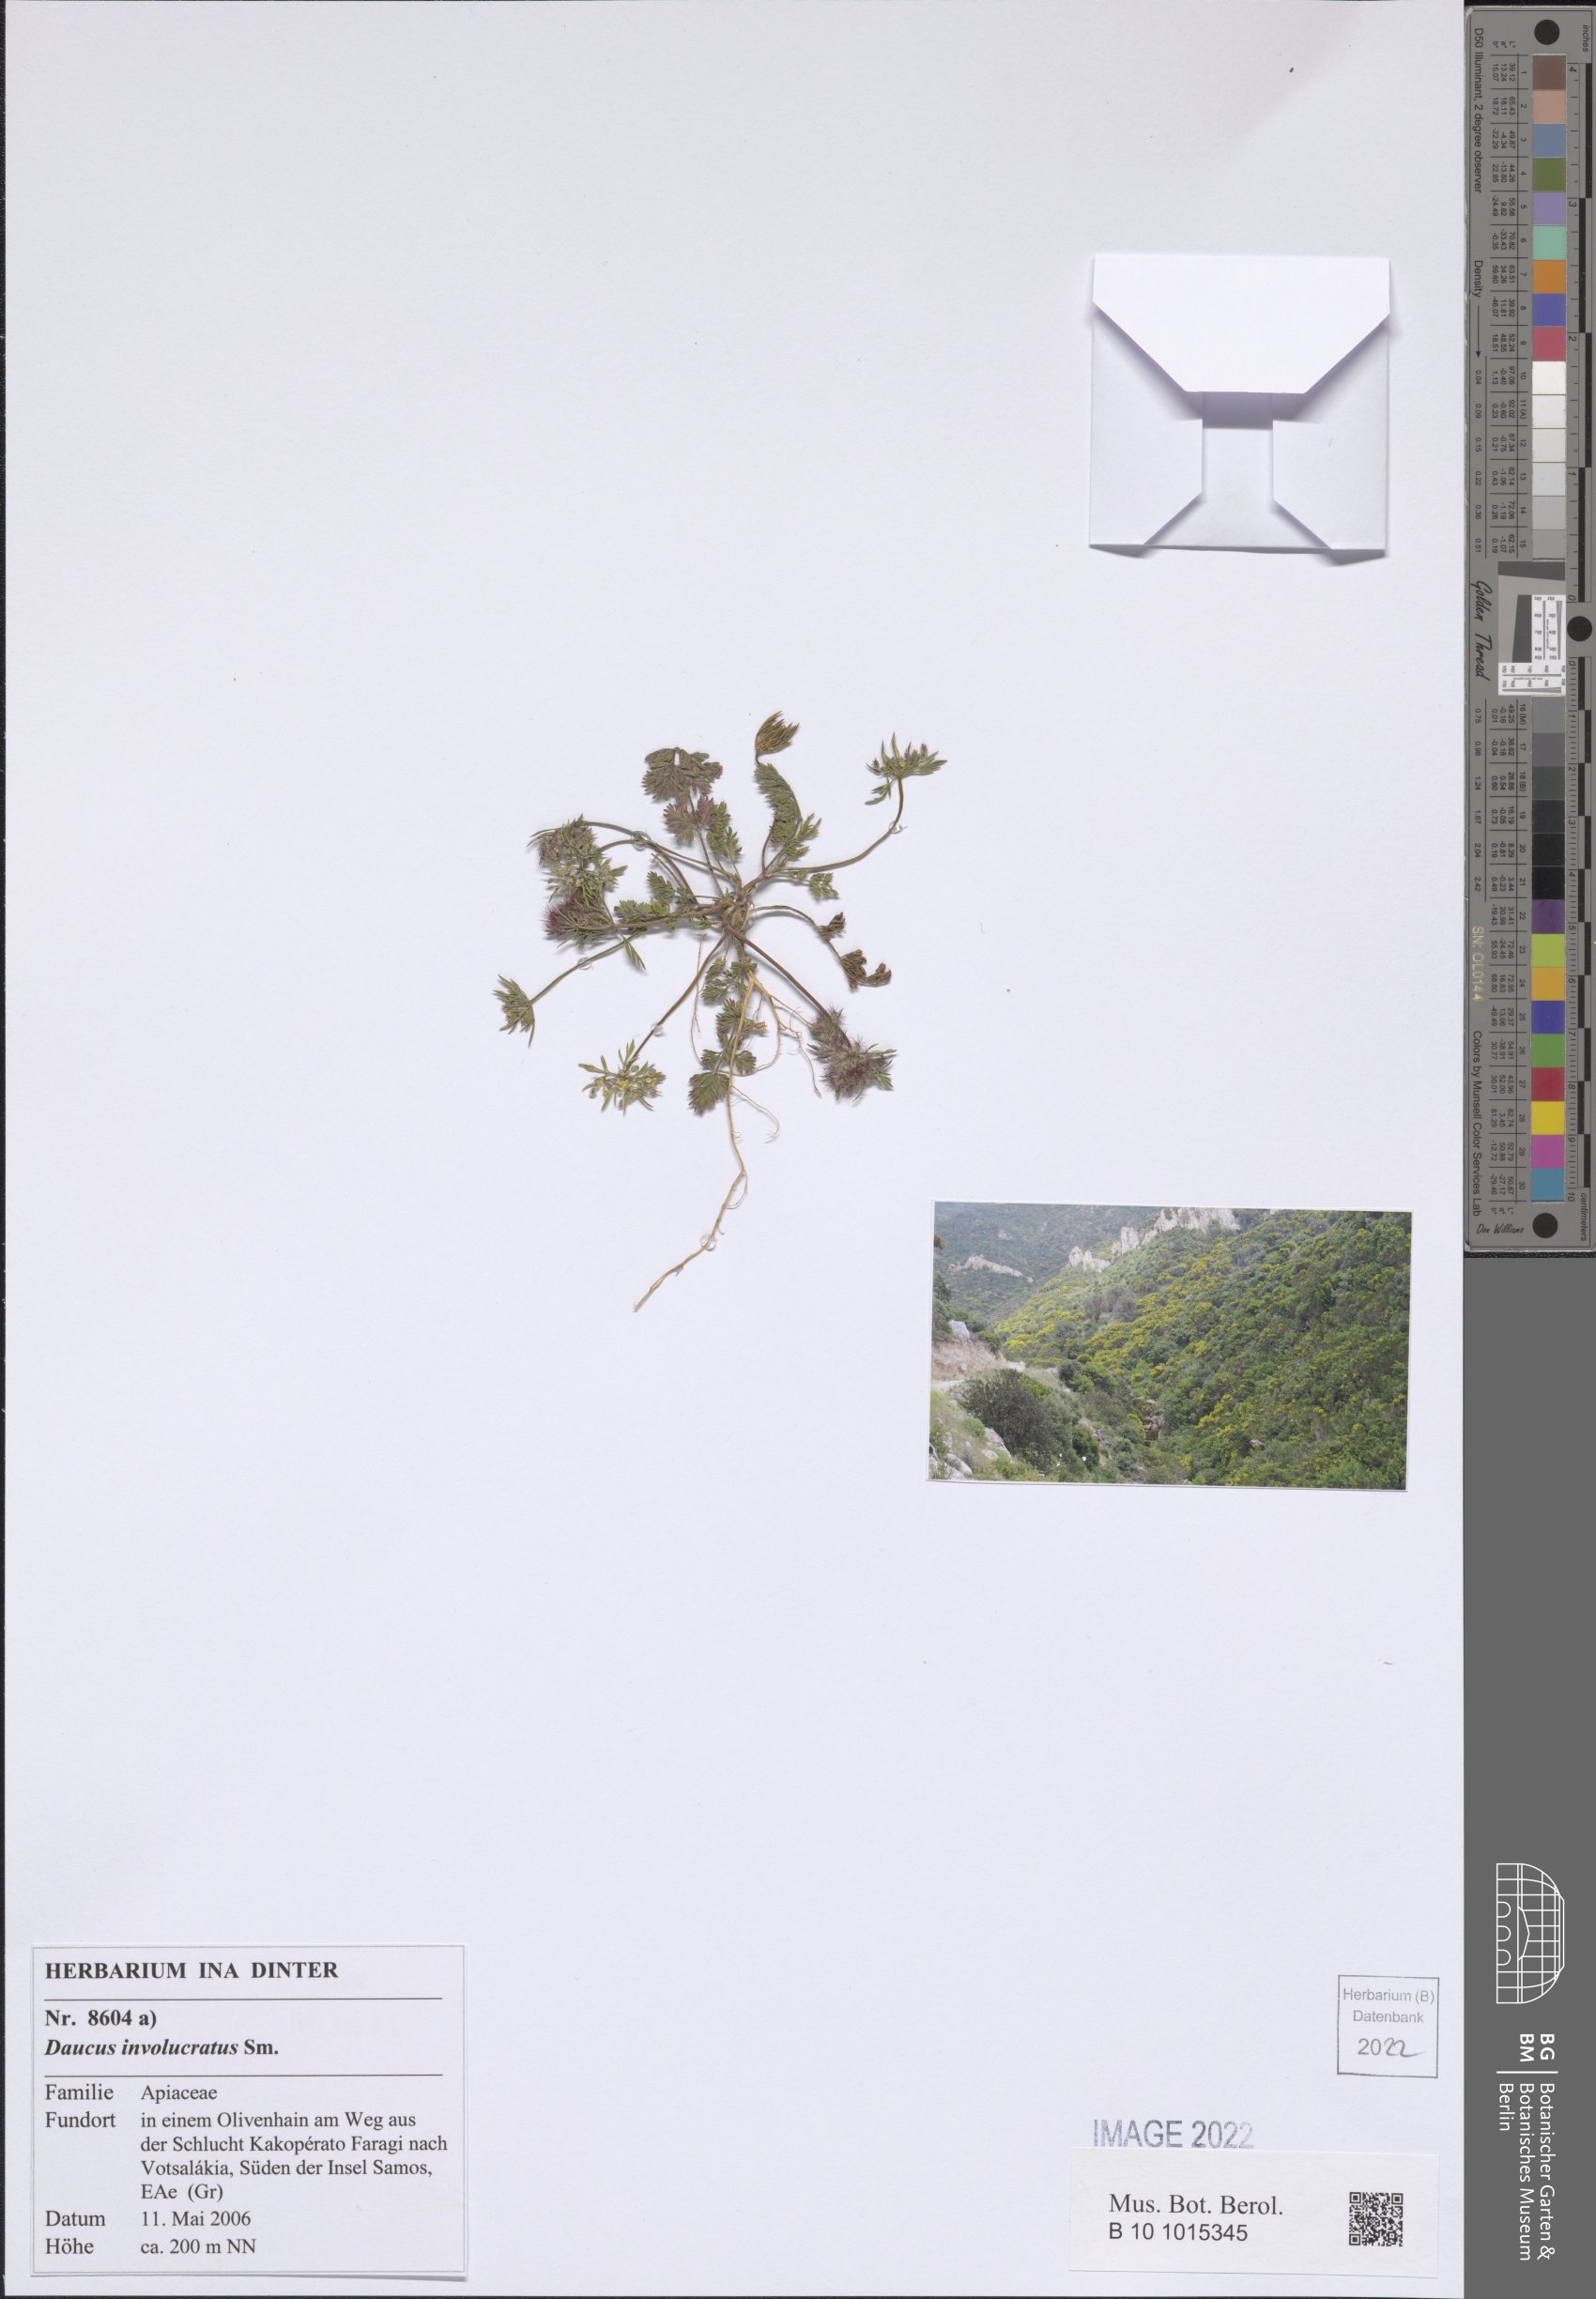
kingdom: Plantae
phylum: Tracheophyta
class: Magnoliopsida
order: Apiales
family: Apiaceae
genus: Daucus
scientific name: Daucus involucratus
